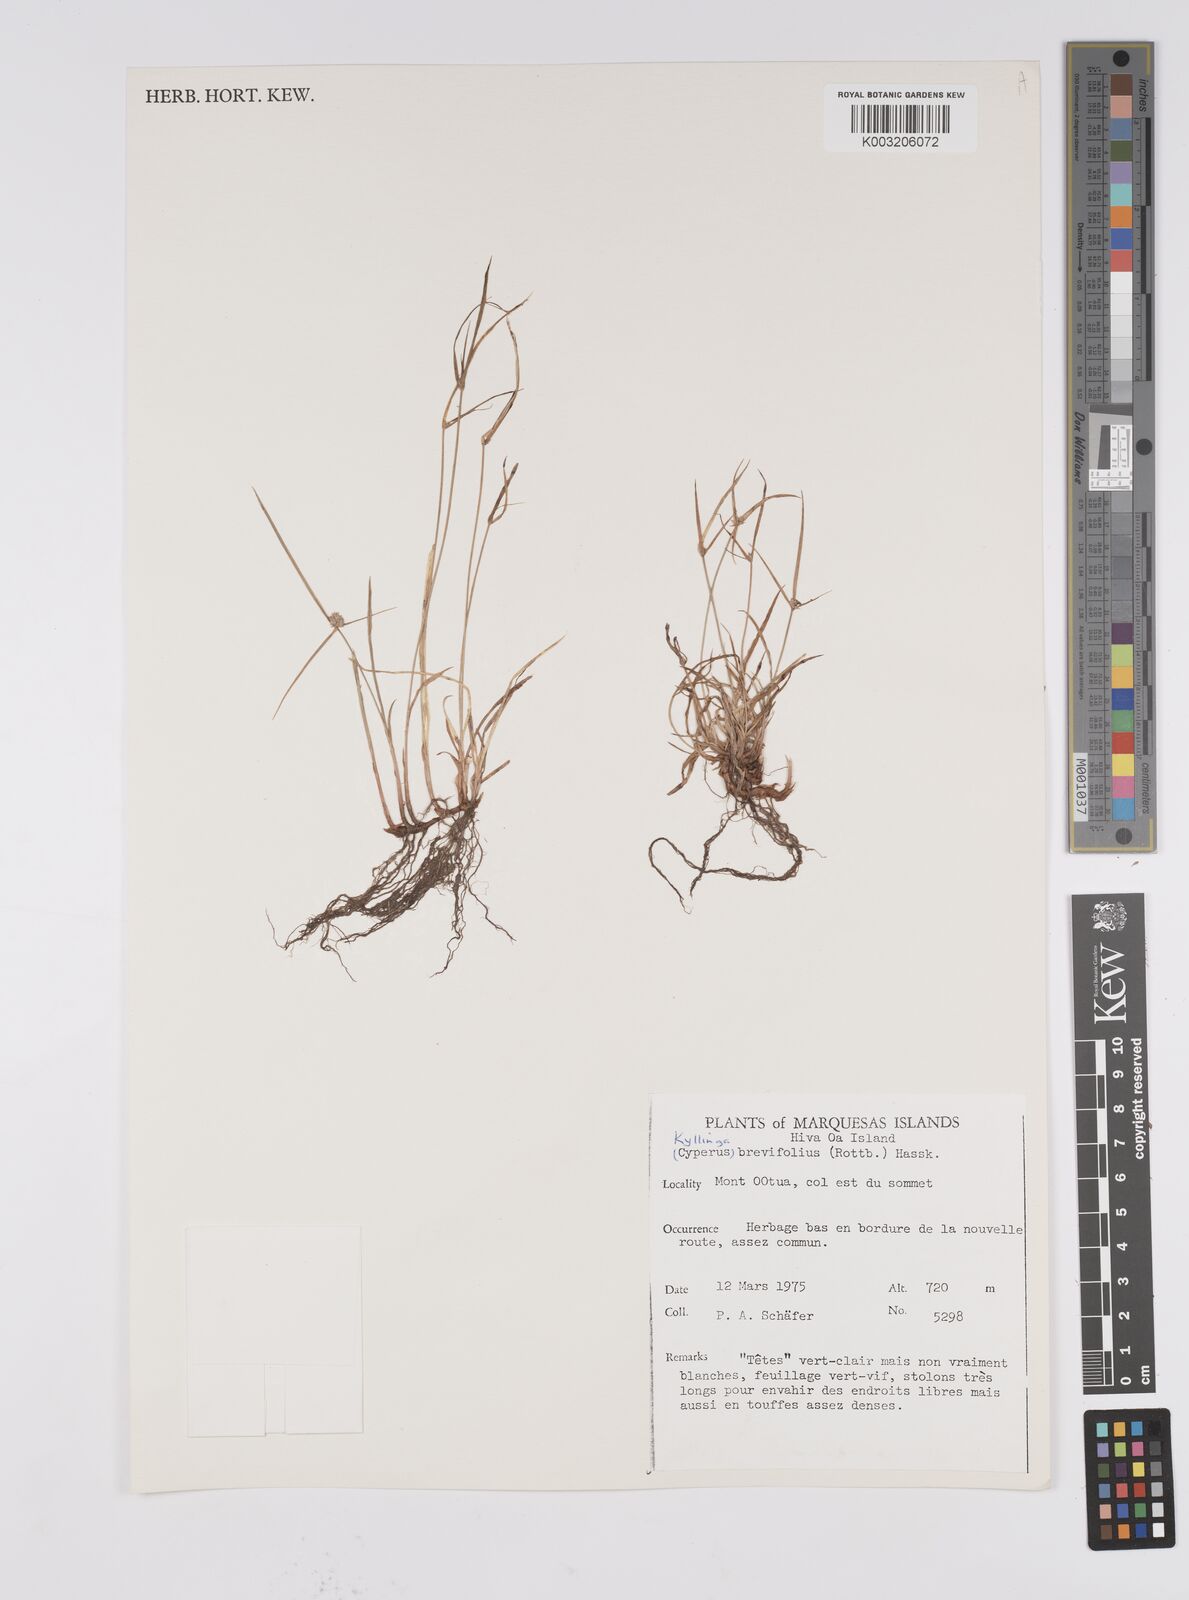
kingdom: Plantae
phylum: Tracheophyta
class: Liliopsida
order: Poales
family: Cyperaceae
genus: Cyperus
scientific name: Cyperus brevifolius
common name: Globe kyllinga
